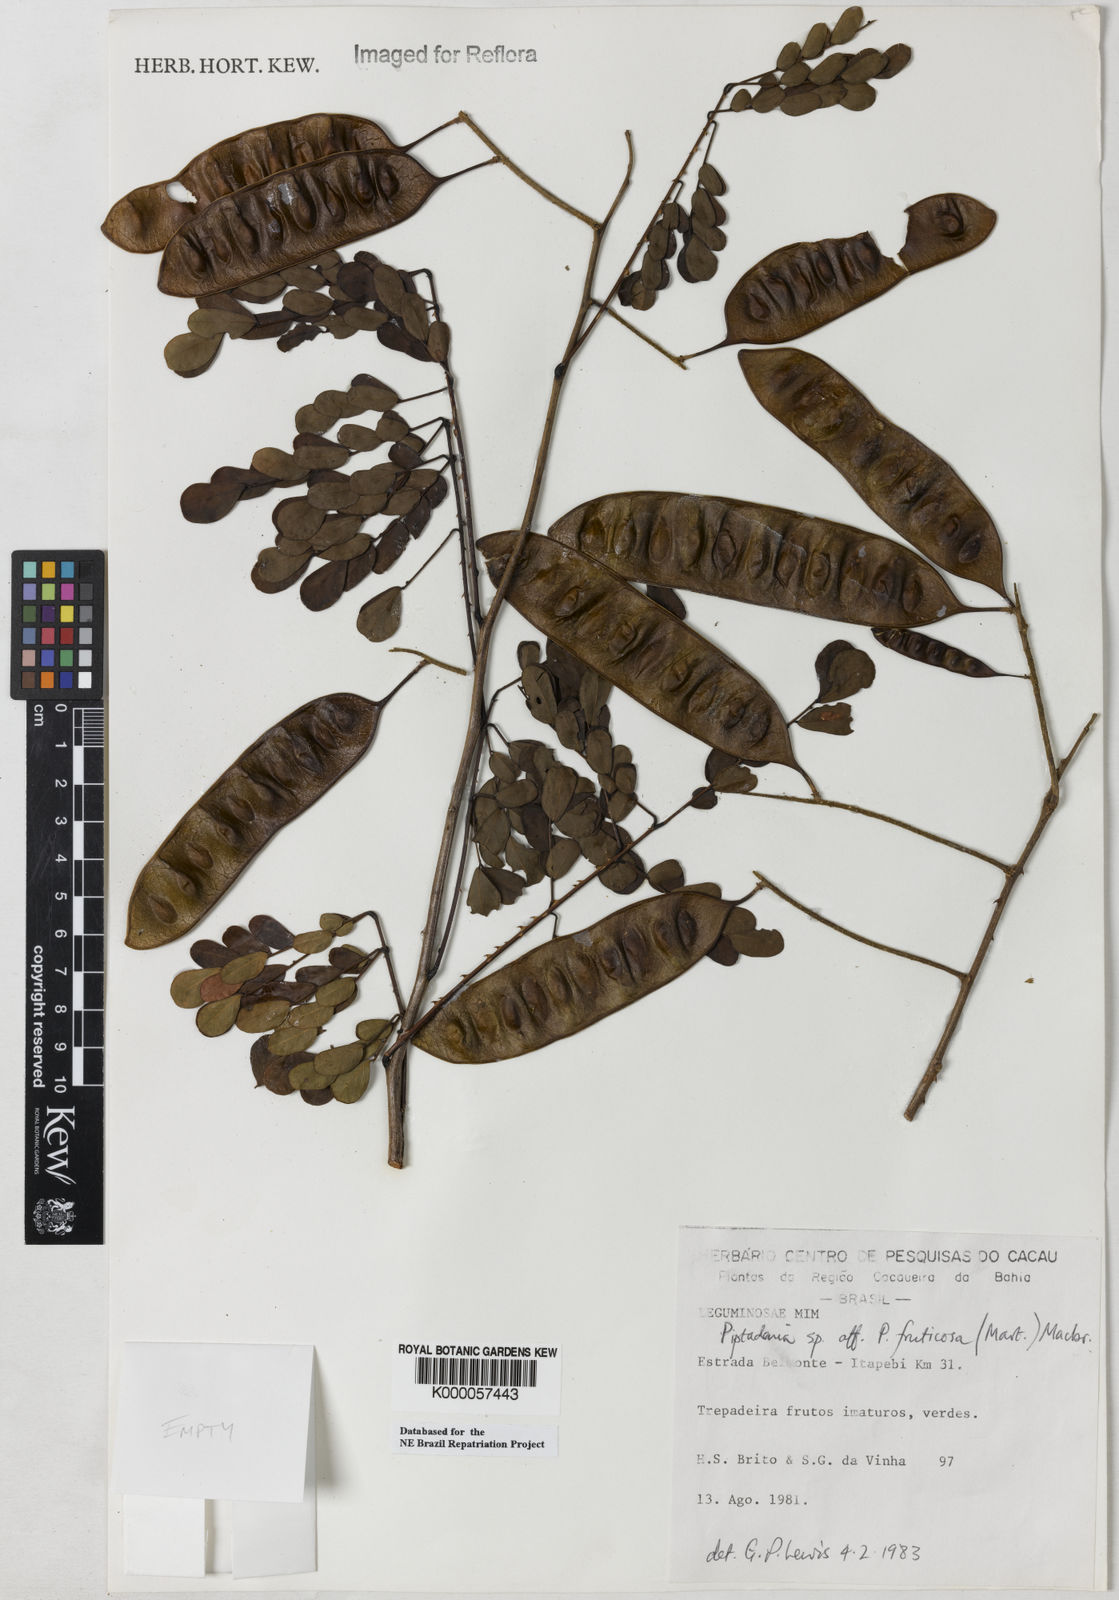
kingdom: Plantae
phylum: Tracheophyta
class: Magnoliopsida
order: Fabales
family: Fabaceae
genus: Piptadenia
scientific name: Piptadenia adiantoides
